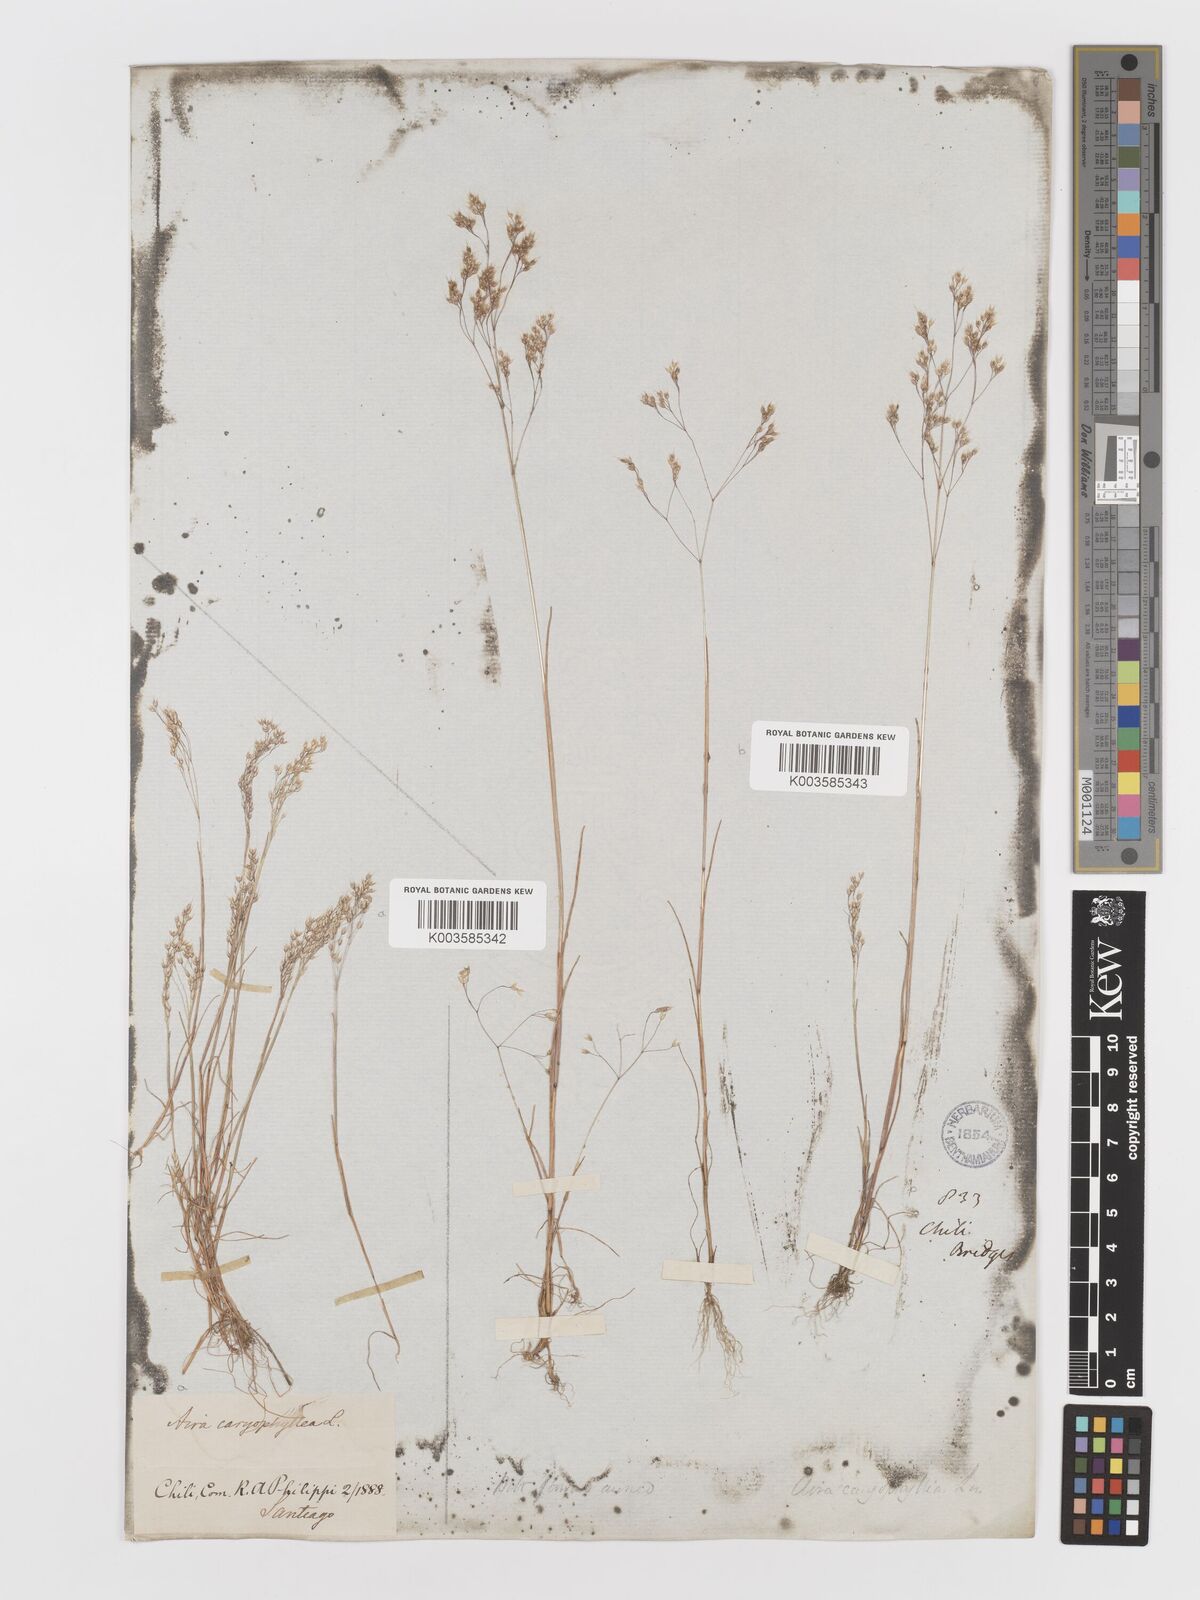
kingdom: Plantae
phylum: Tracheophyta
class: Liliopsida
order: Poales
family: Poaceae
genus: Aira
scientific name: Aira caryophyllea
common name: Silver hairgrass
